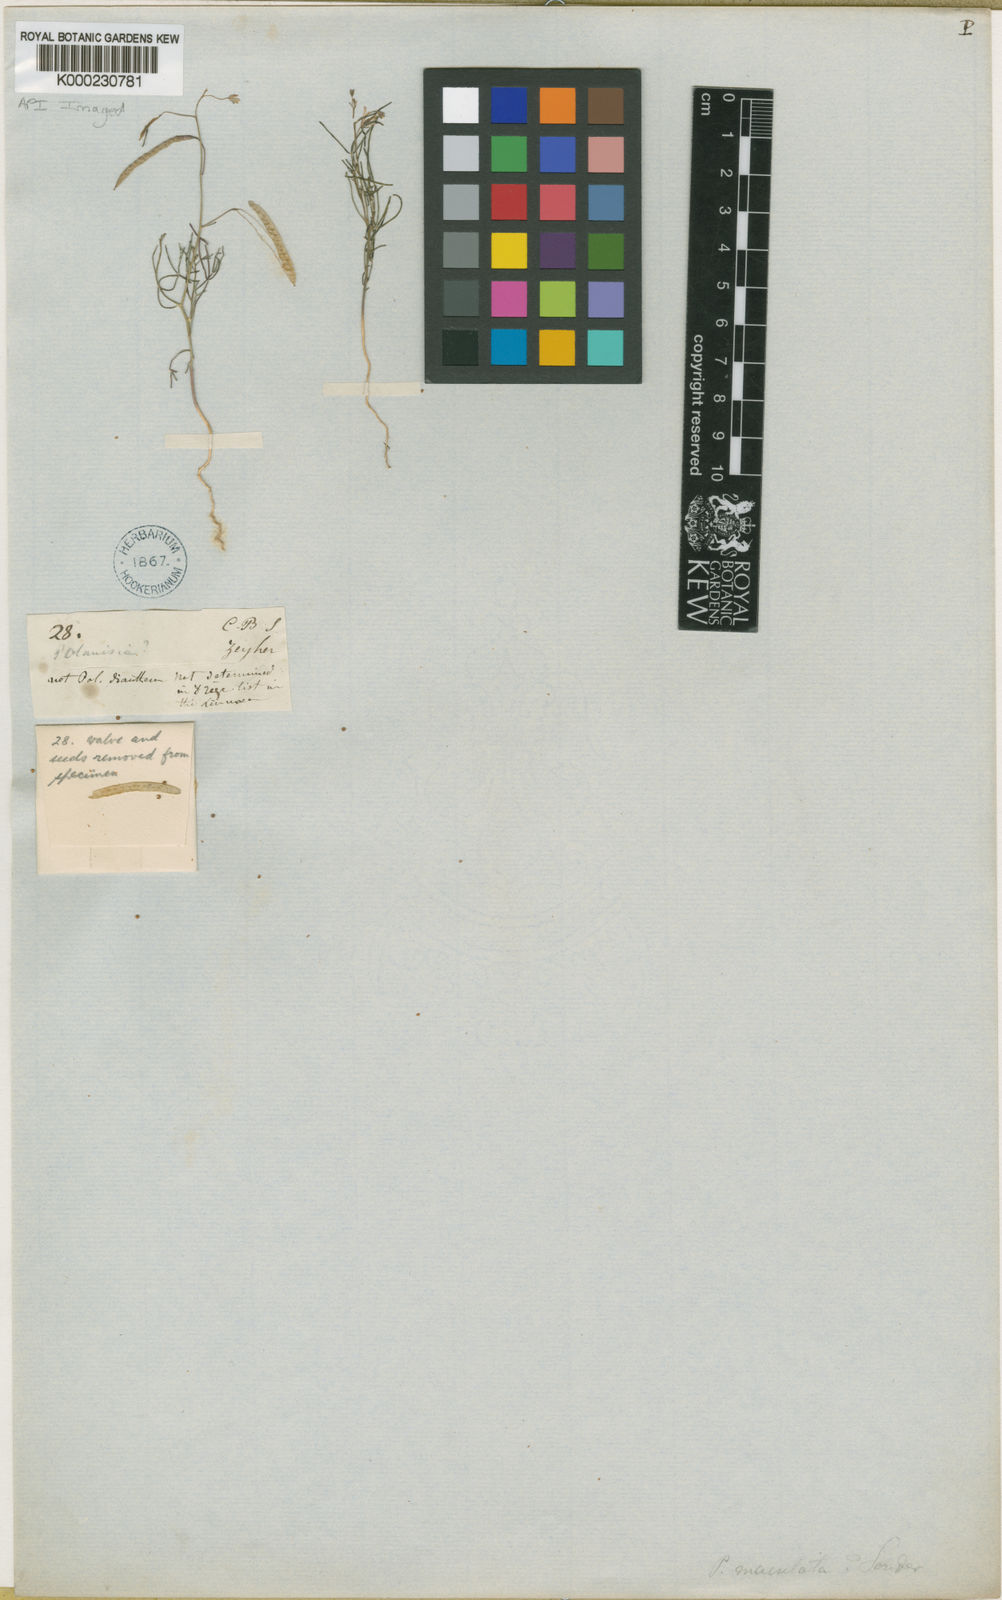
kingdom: Plantae
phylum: Tracheophyta
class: Magnoliopsida
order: Brassicales
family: Cleomaceae
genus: Cleome
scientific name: Cleome
